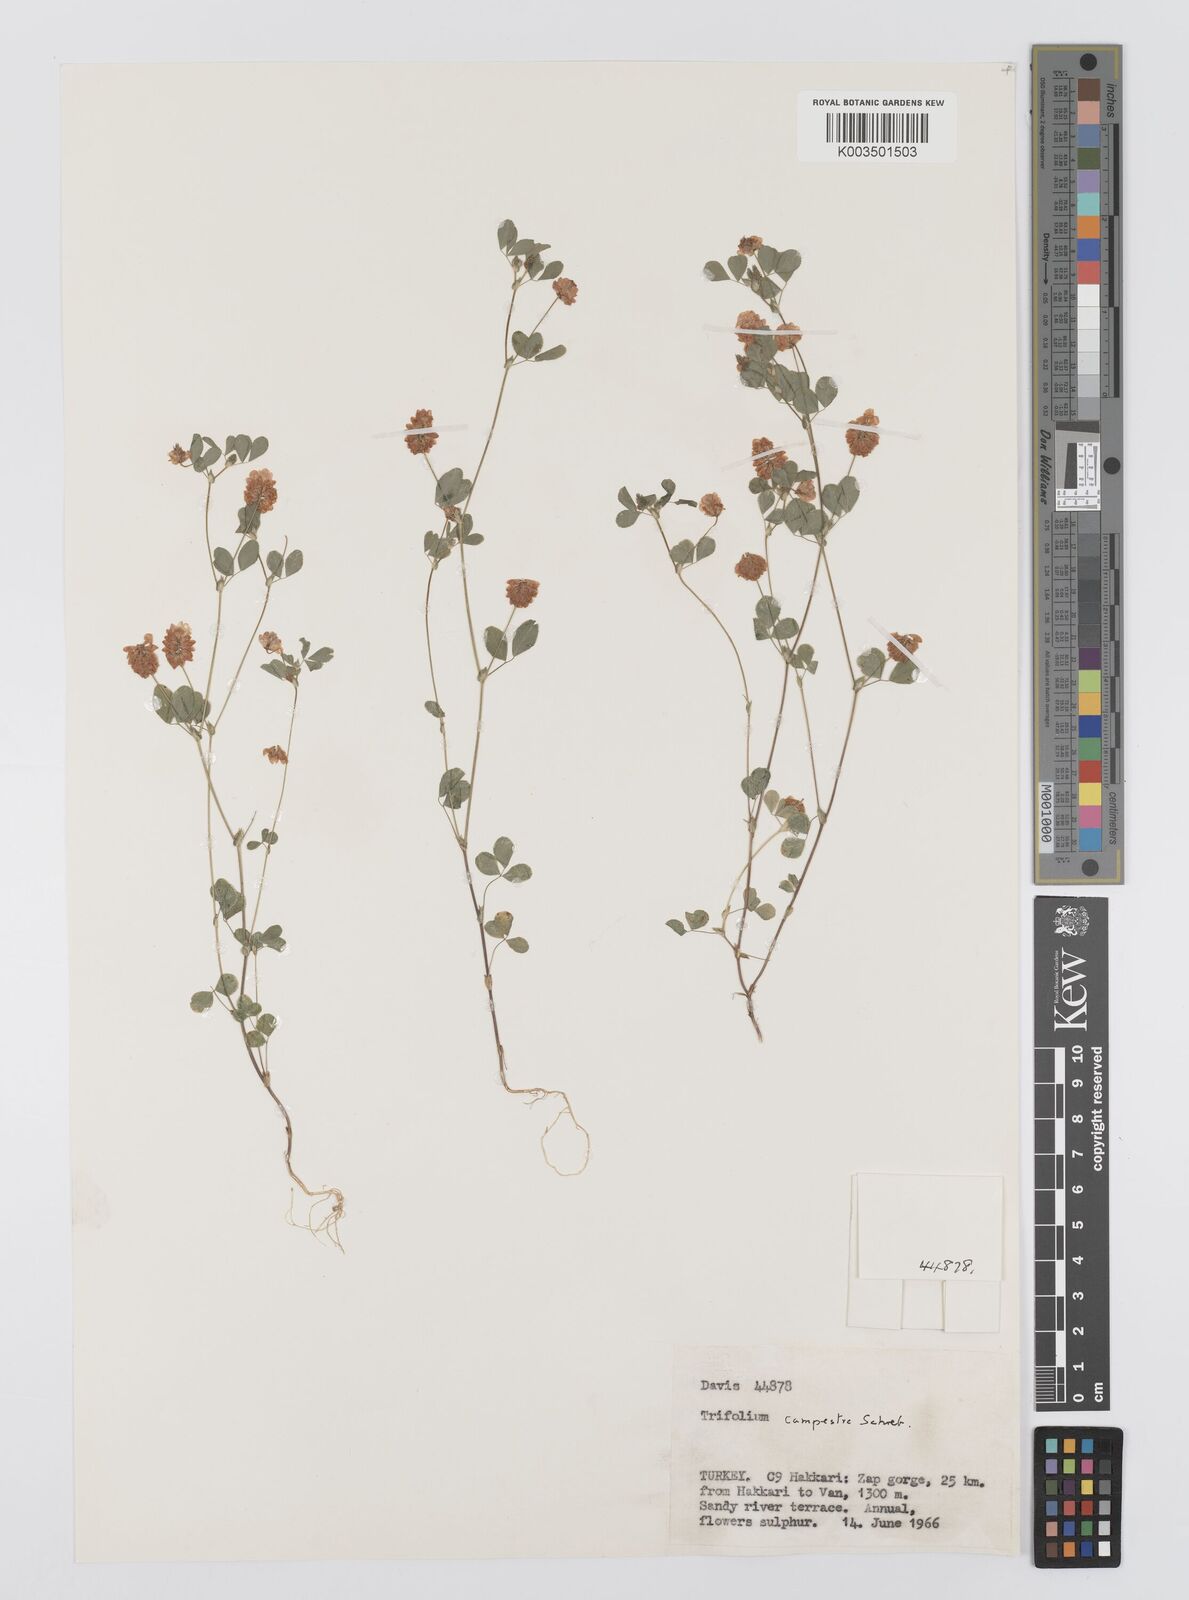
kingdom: Plantae
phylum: Tracheophyta
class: Magnoliopsida
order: Fabales
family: Fabaceae
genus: Trifolium
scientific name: Trifolium campestre
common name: Field clover
